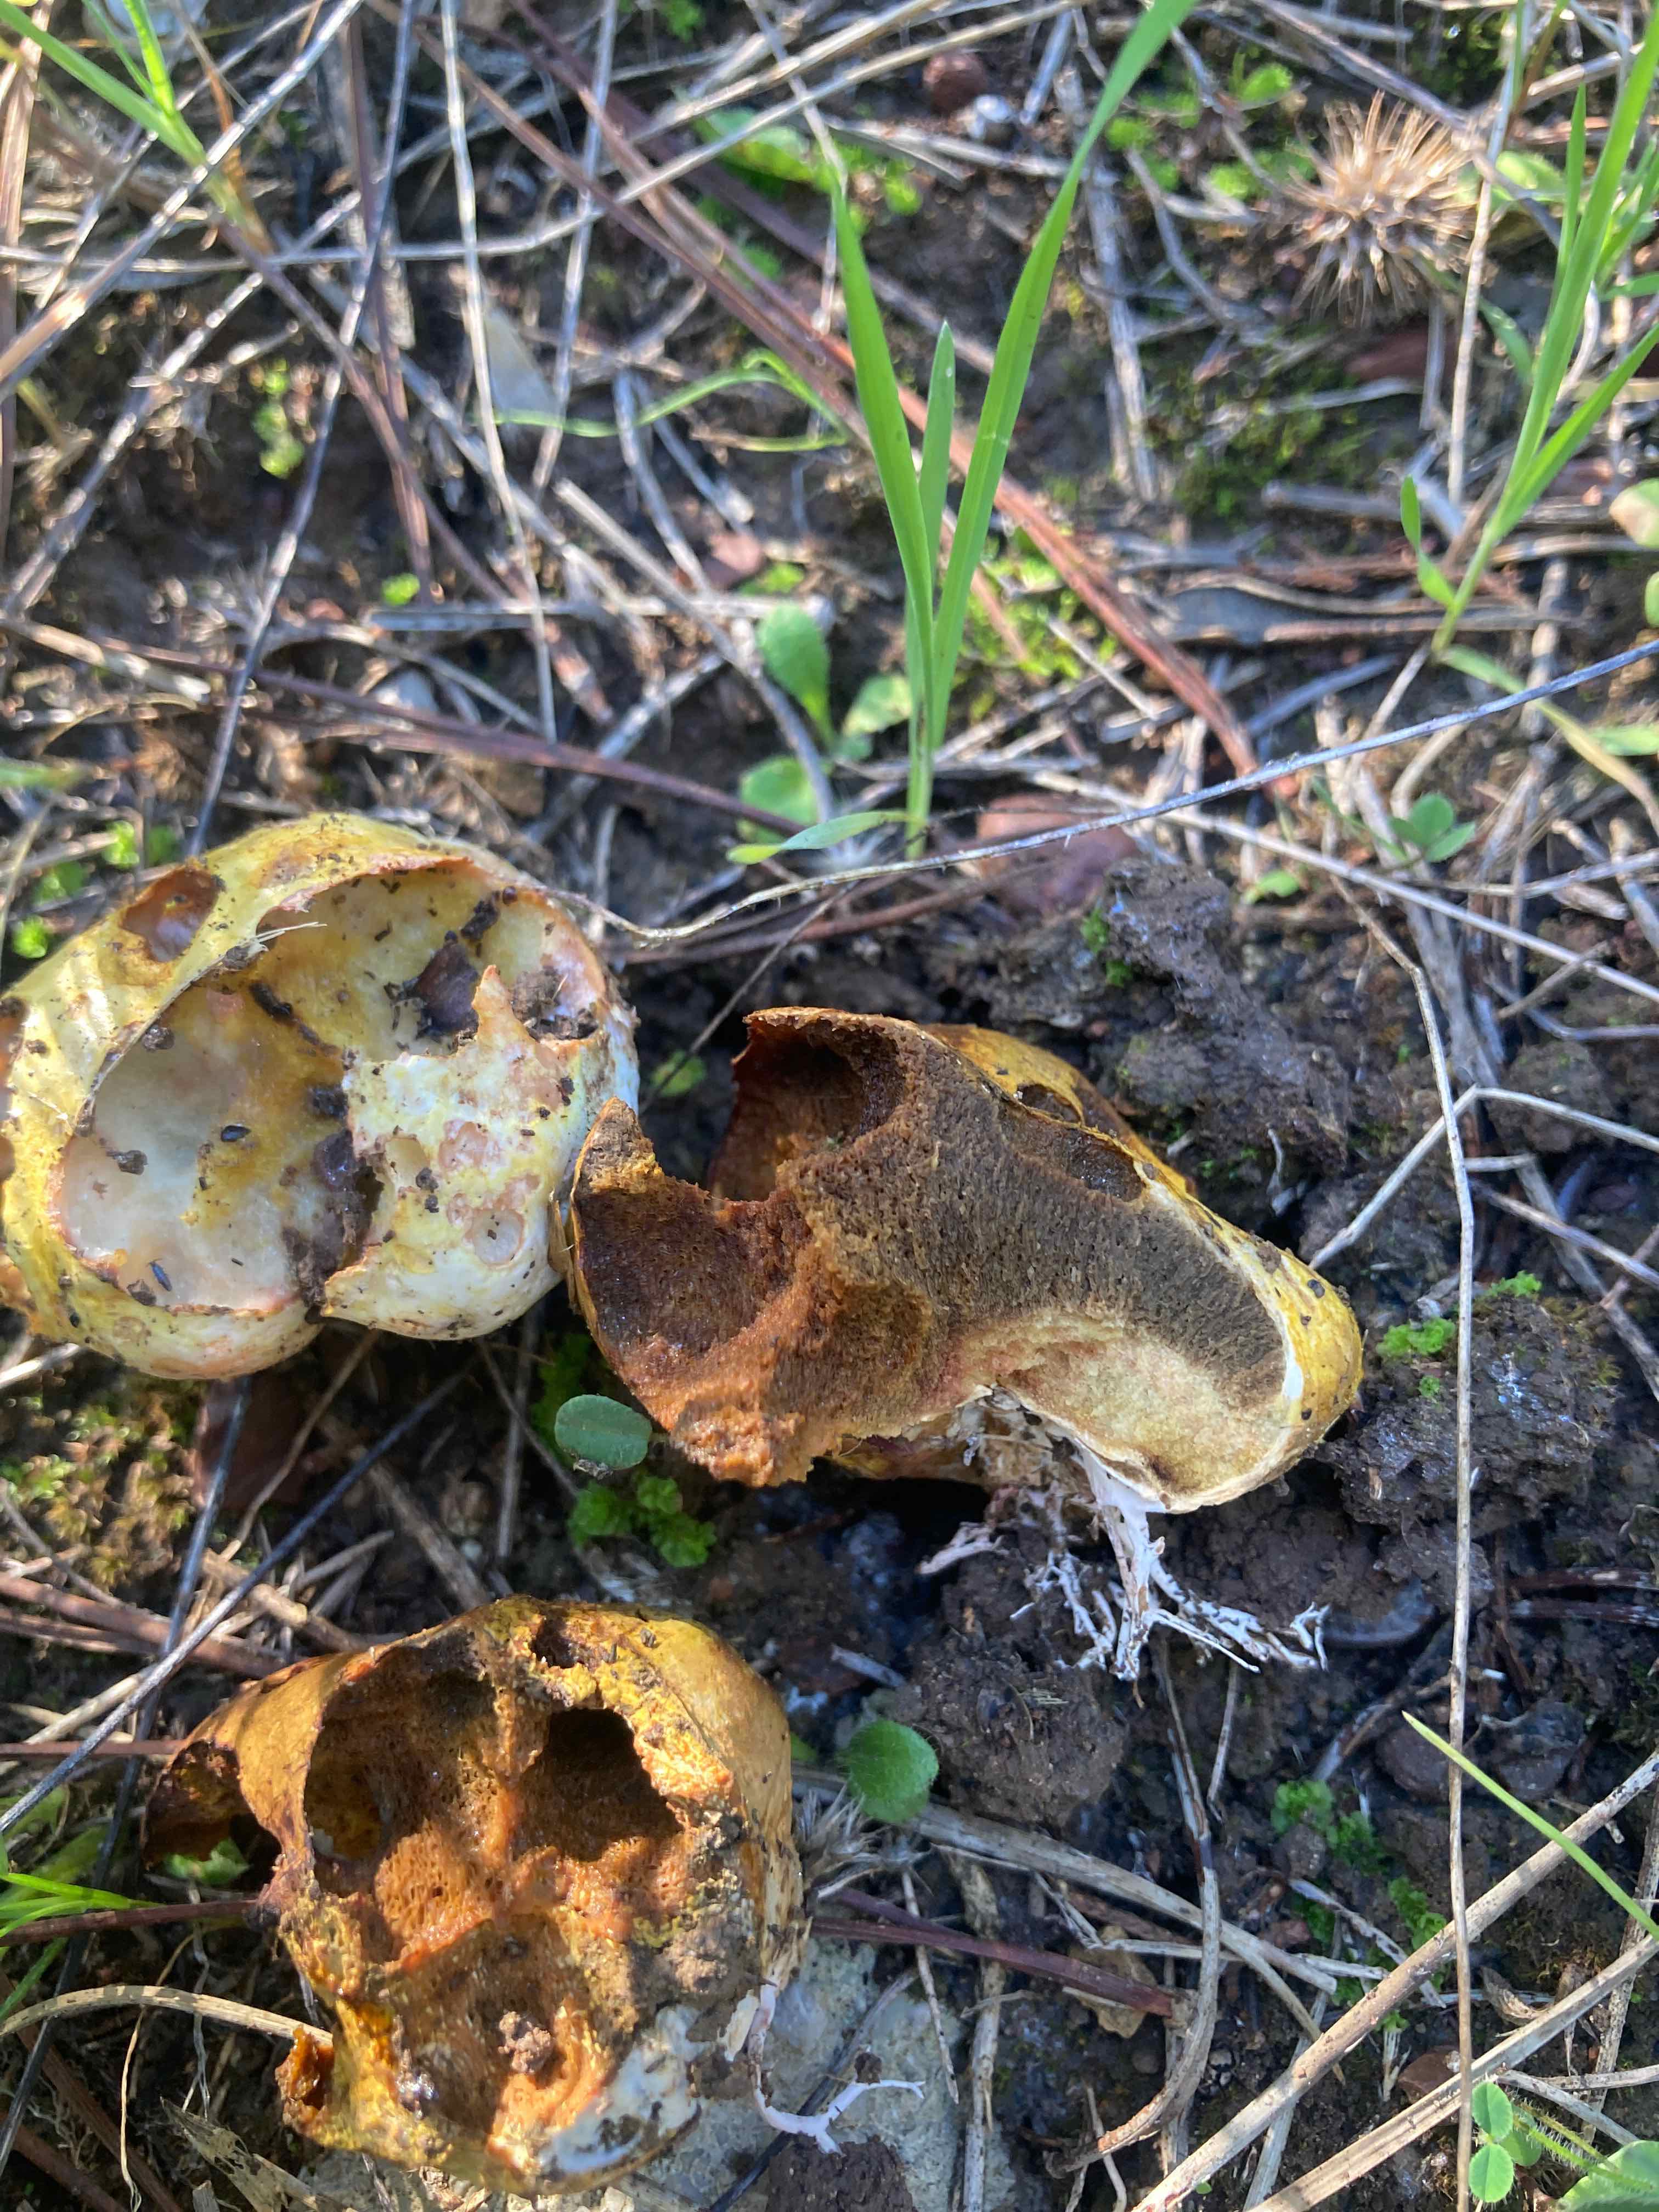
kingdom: Fungi
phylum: Basidiomycota
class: Agaricomycetes
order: Boletales
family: Rhizopogonaceae
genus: Rhizopogon
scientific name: Rhizopogon
